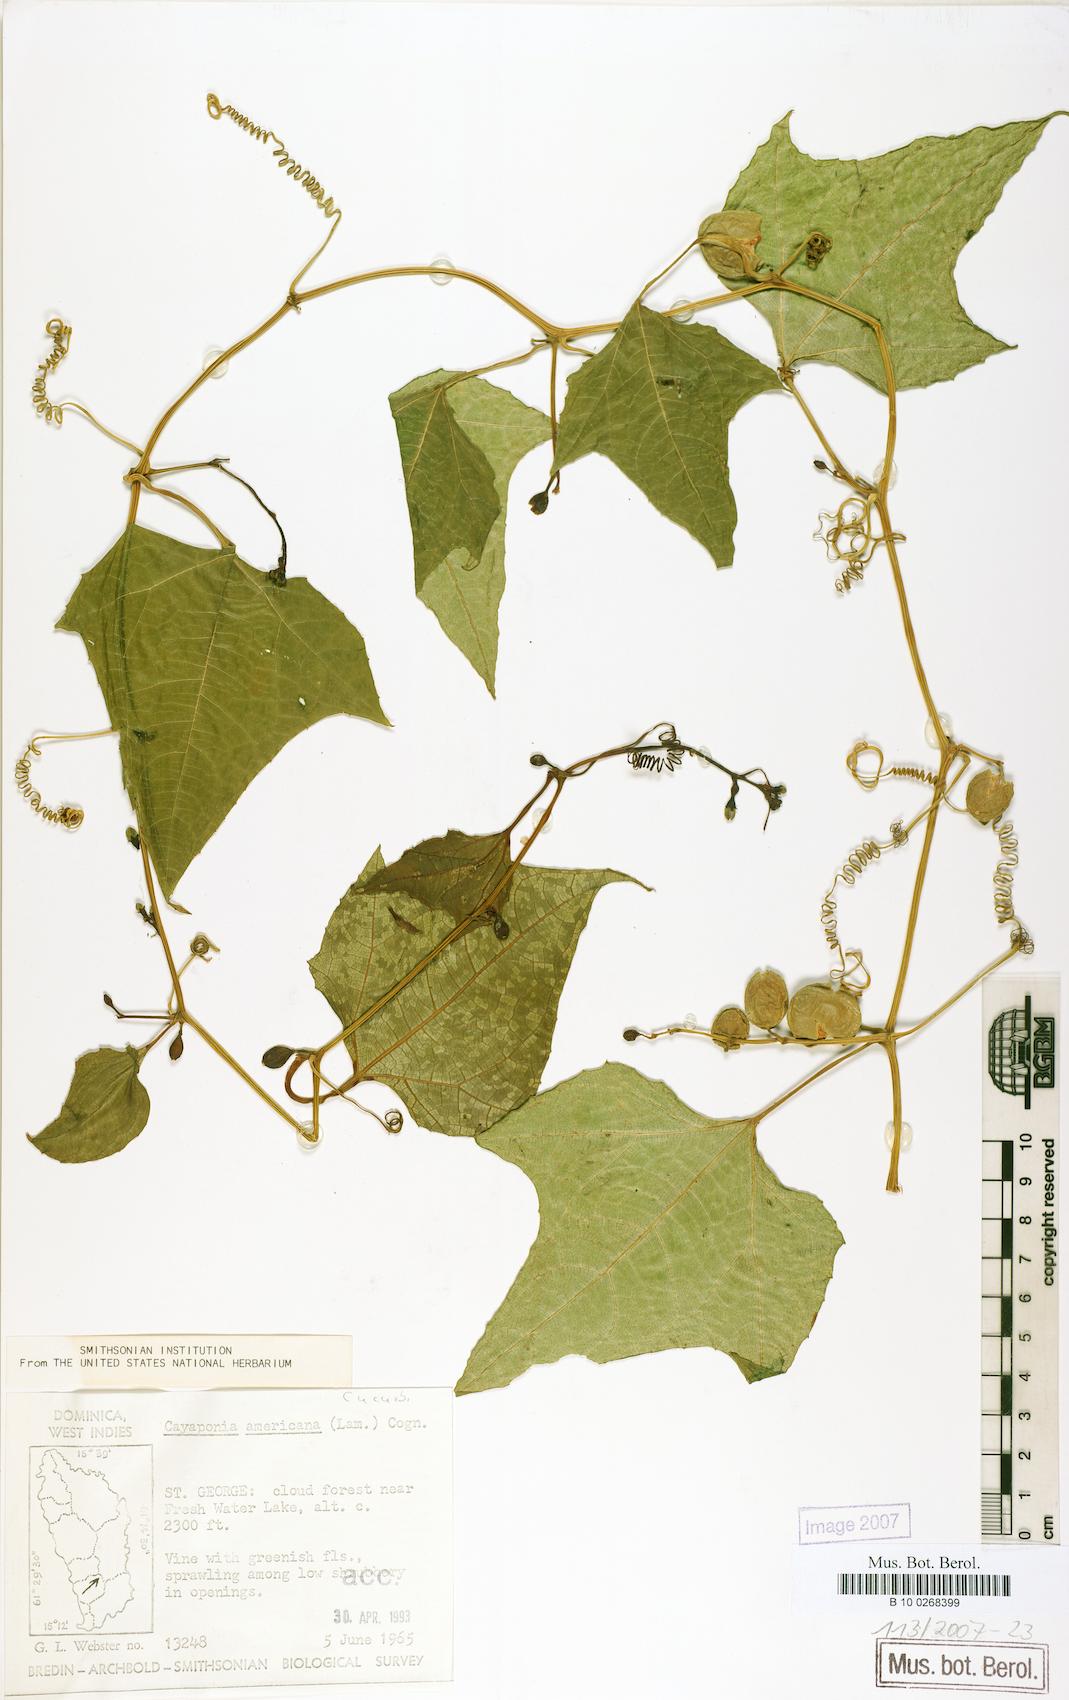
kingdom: Plantae
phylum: Tracheophyta
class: Magnoliopsida
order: Cucurbitales
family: Cucurbitaceae
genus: Cayaponia
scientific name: Cayaponia americana
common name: American melonleaf
